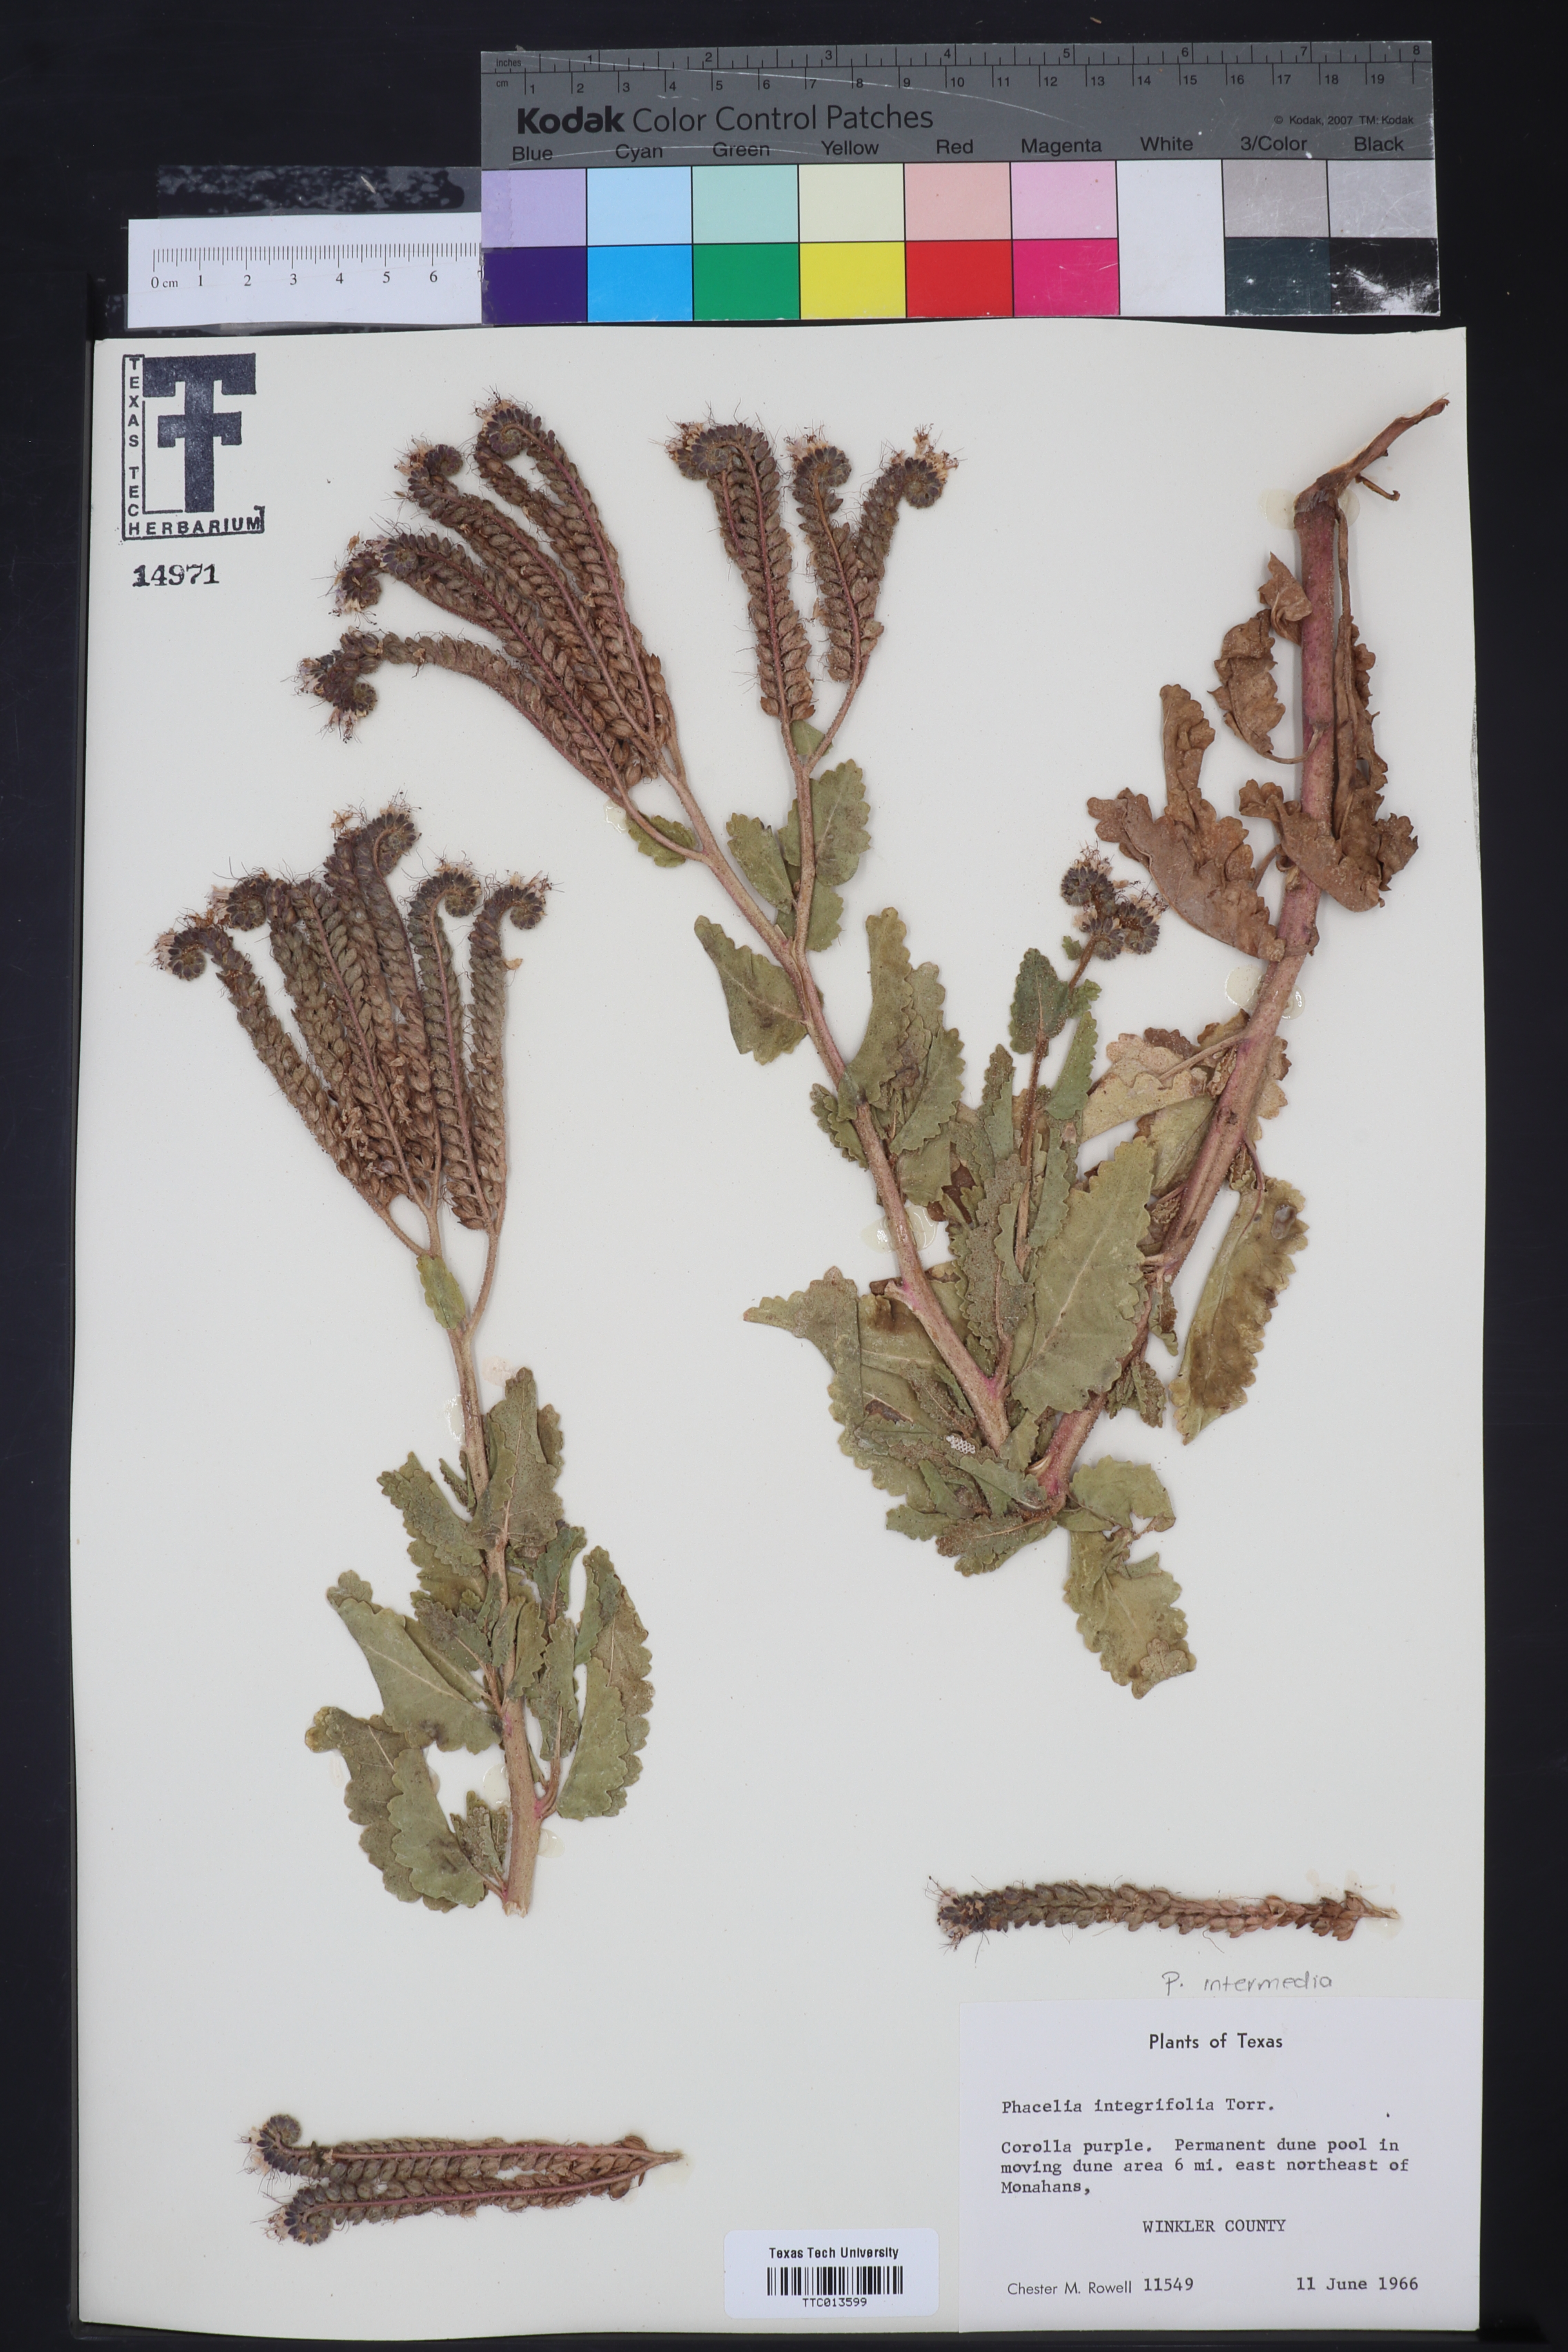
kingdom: Plantae
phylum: Tracheophyta
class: Magnoliopsida
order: Boraginales
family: Hydrophyllaceae
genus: Phacelia
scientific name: Phacelia integrifolia
